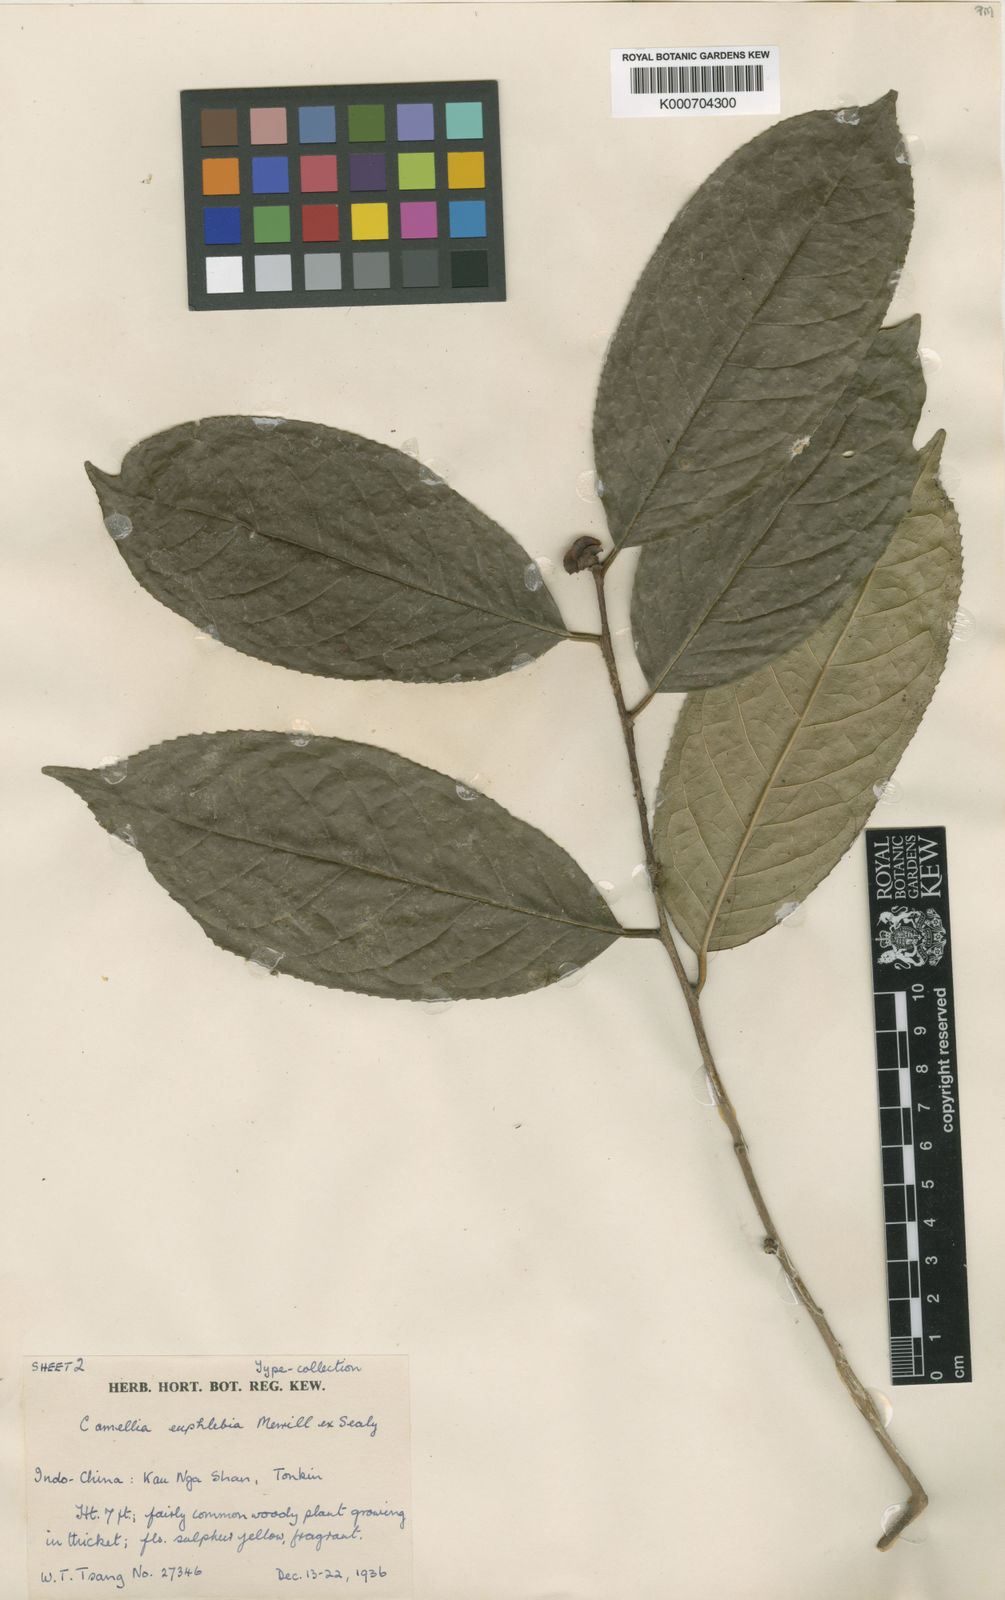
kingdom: Plantae
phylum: Tracheophyta
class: Magnoliopsida
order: Ericales
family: Theaceae
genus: Camellia
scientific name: Camellia euphlebia
